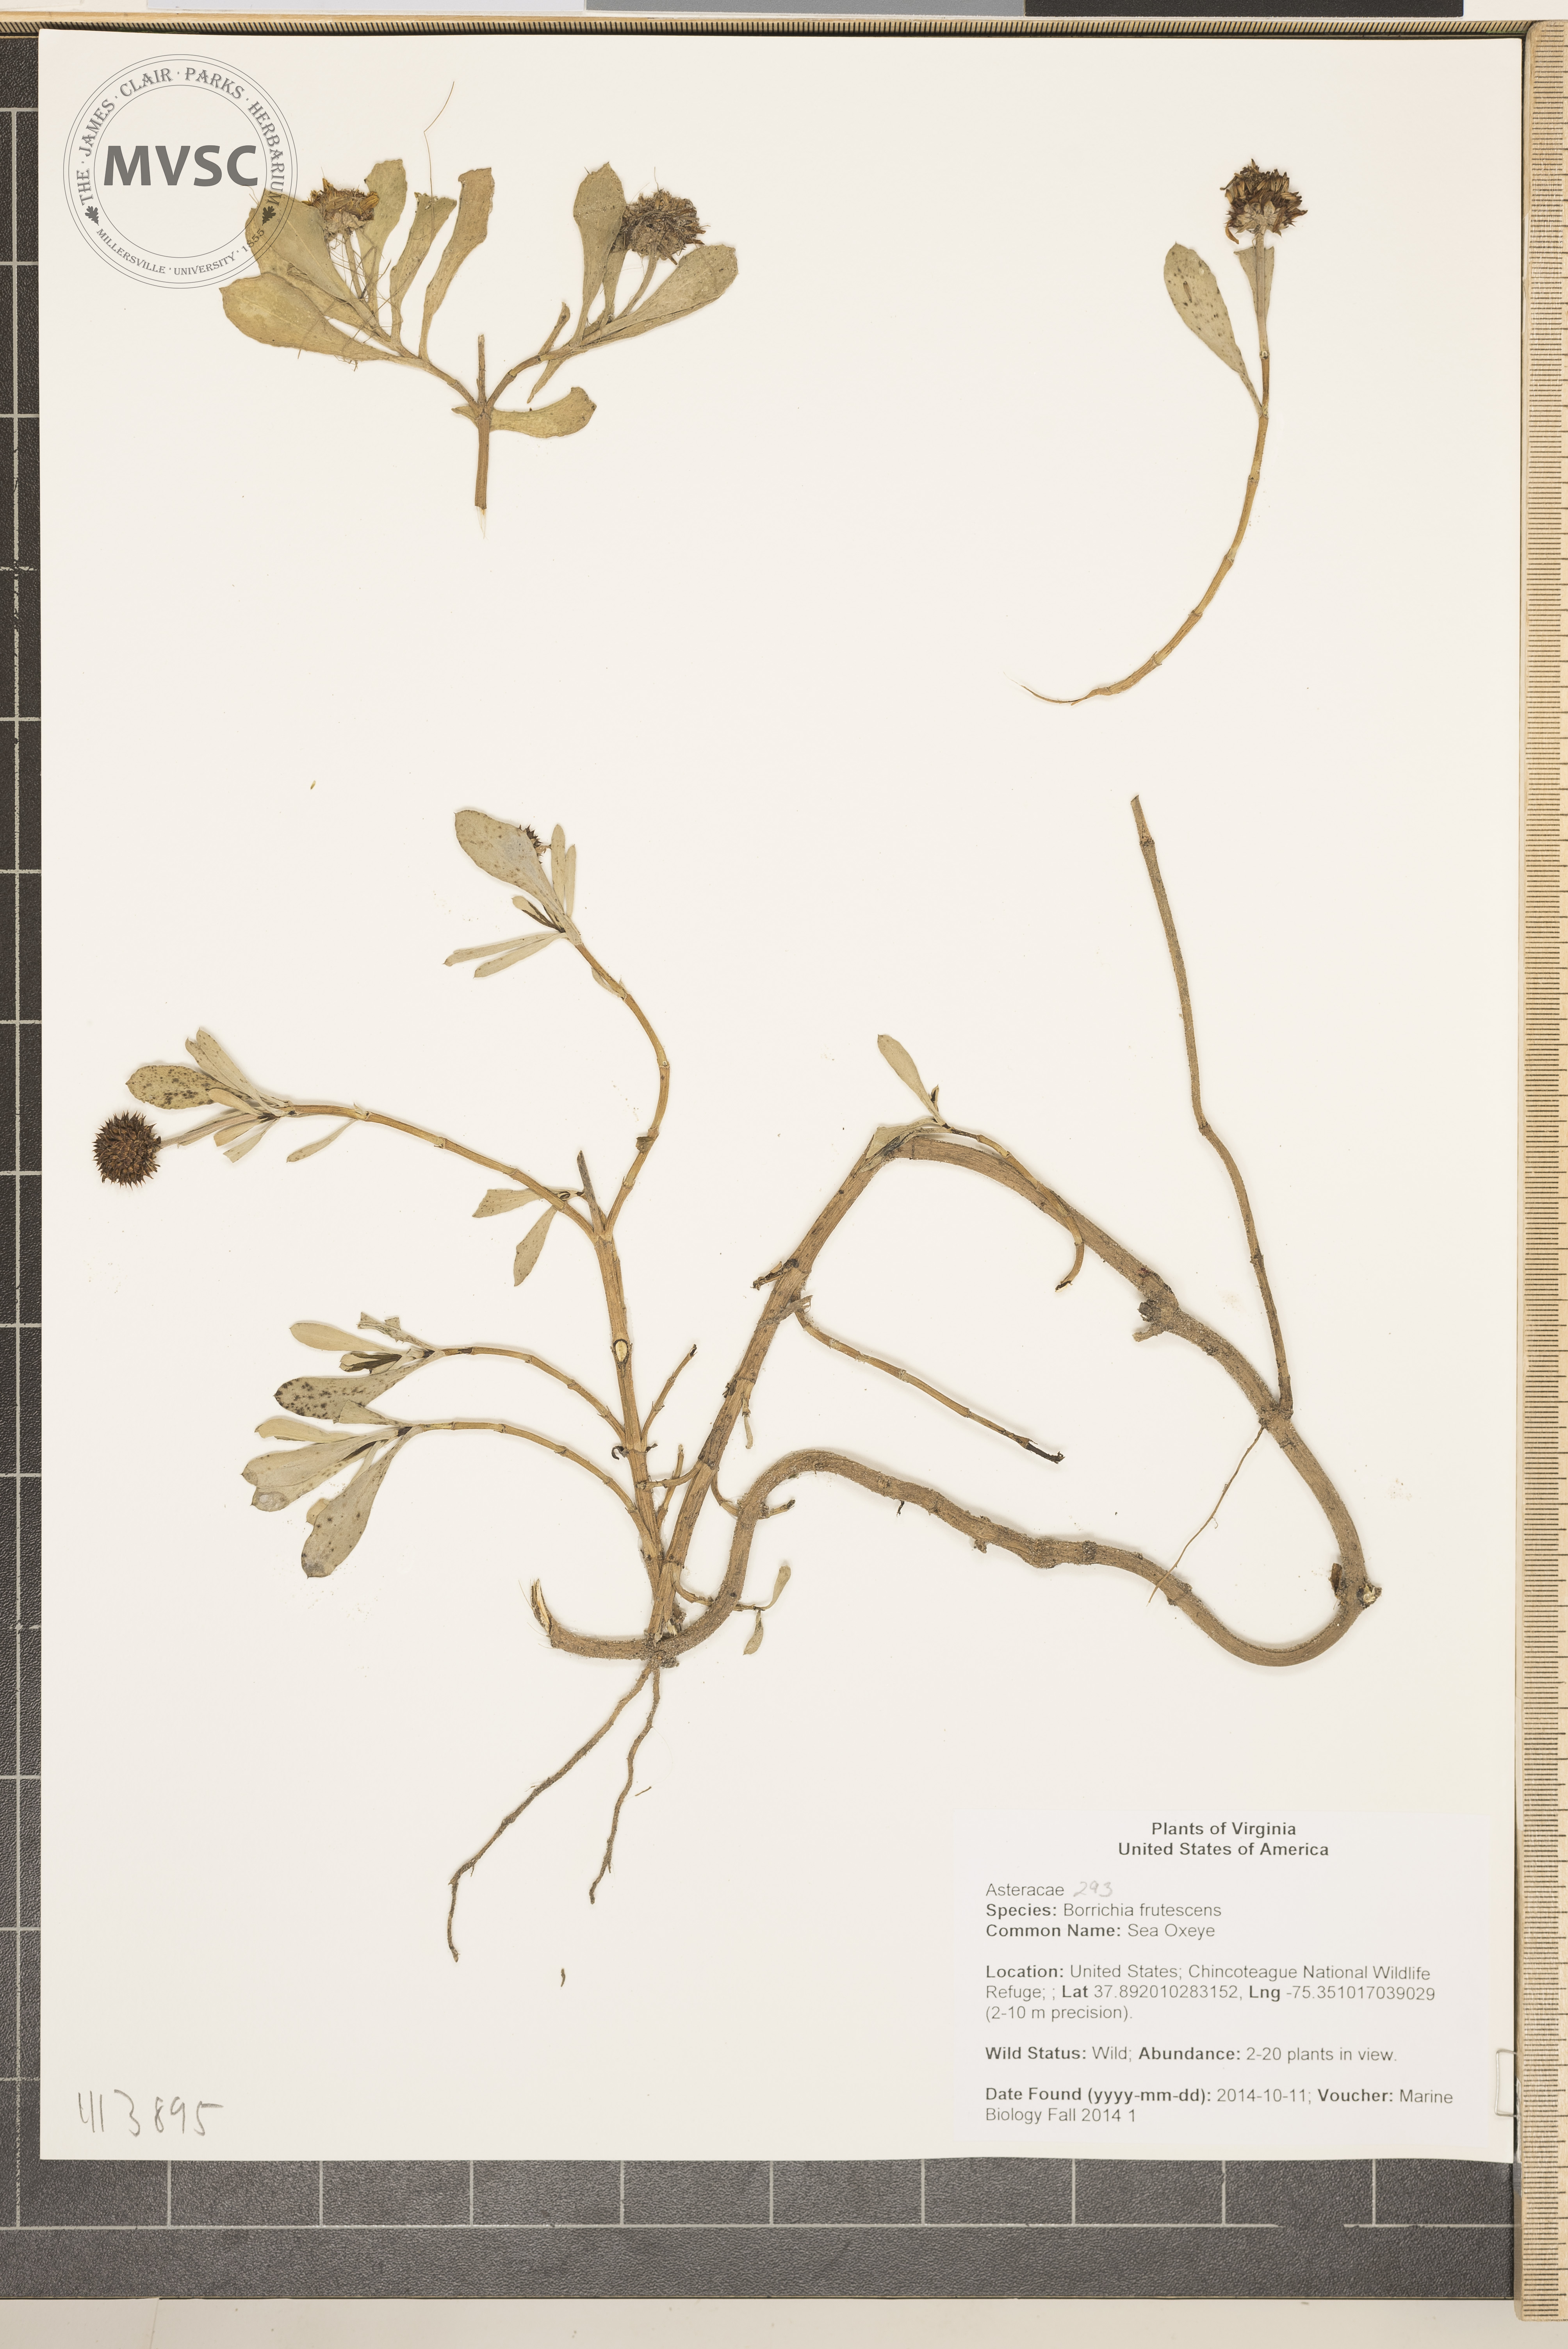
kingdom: Plantae
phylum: Tracheophyta
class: Magnoliopsida
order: Asterales
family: Asteraceae
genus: Borrichia
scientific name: Borrichia frutescens
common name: Sea Oxeye
